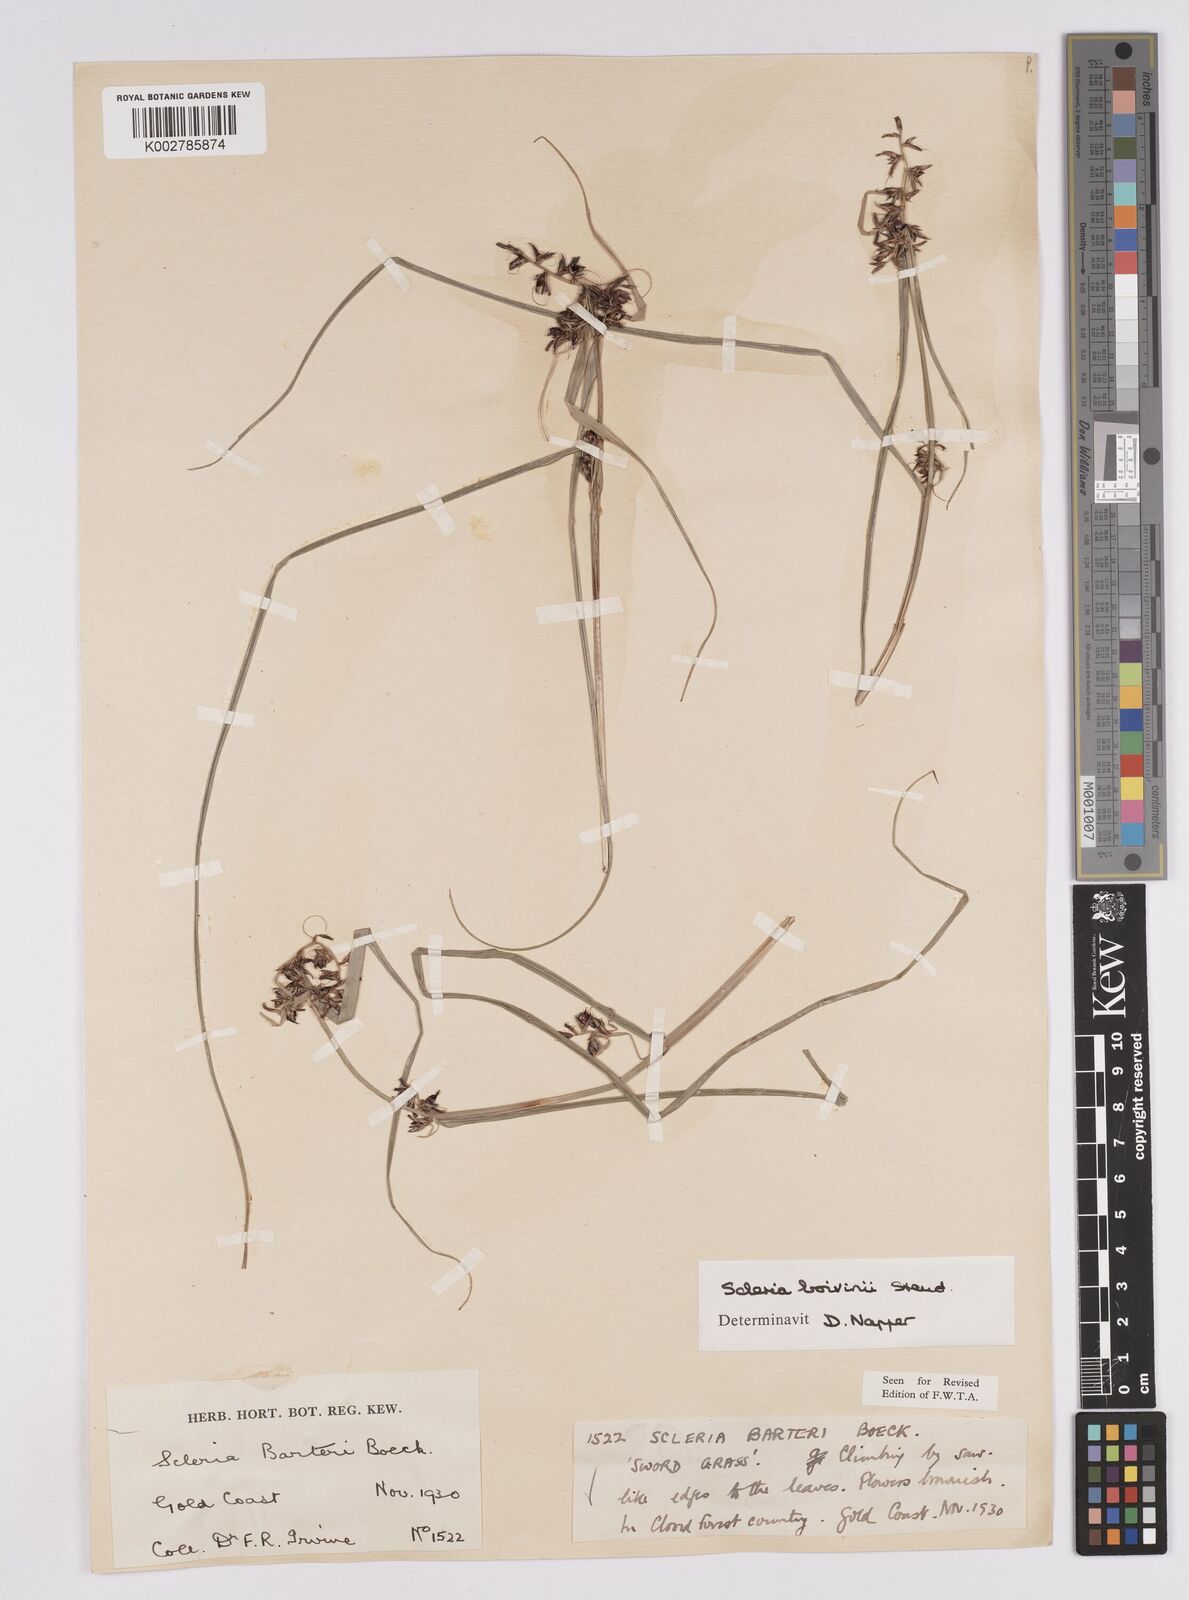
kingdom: Plantae
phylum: Tracheophyta
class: Liliopsida
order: Poales
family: Cyperaceae
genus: Scleria
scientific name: Scleria boivinii
